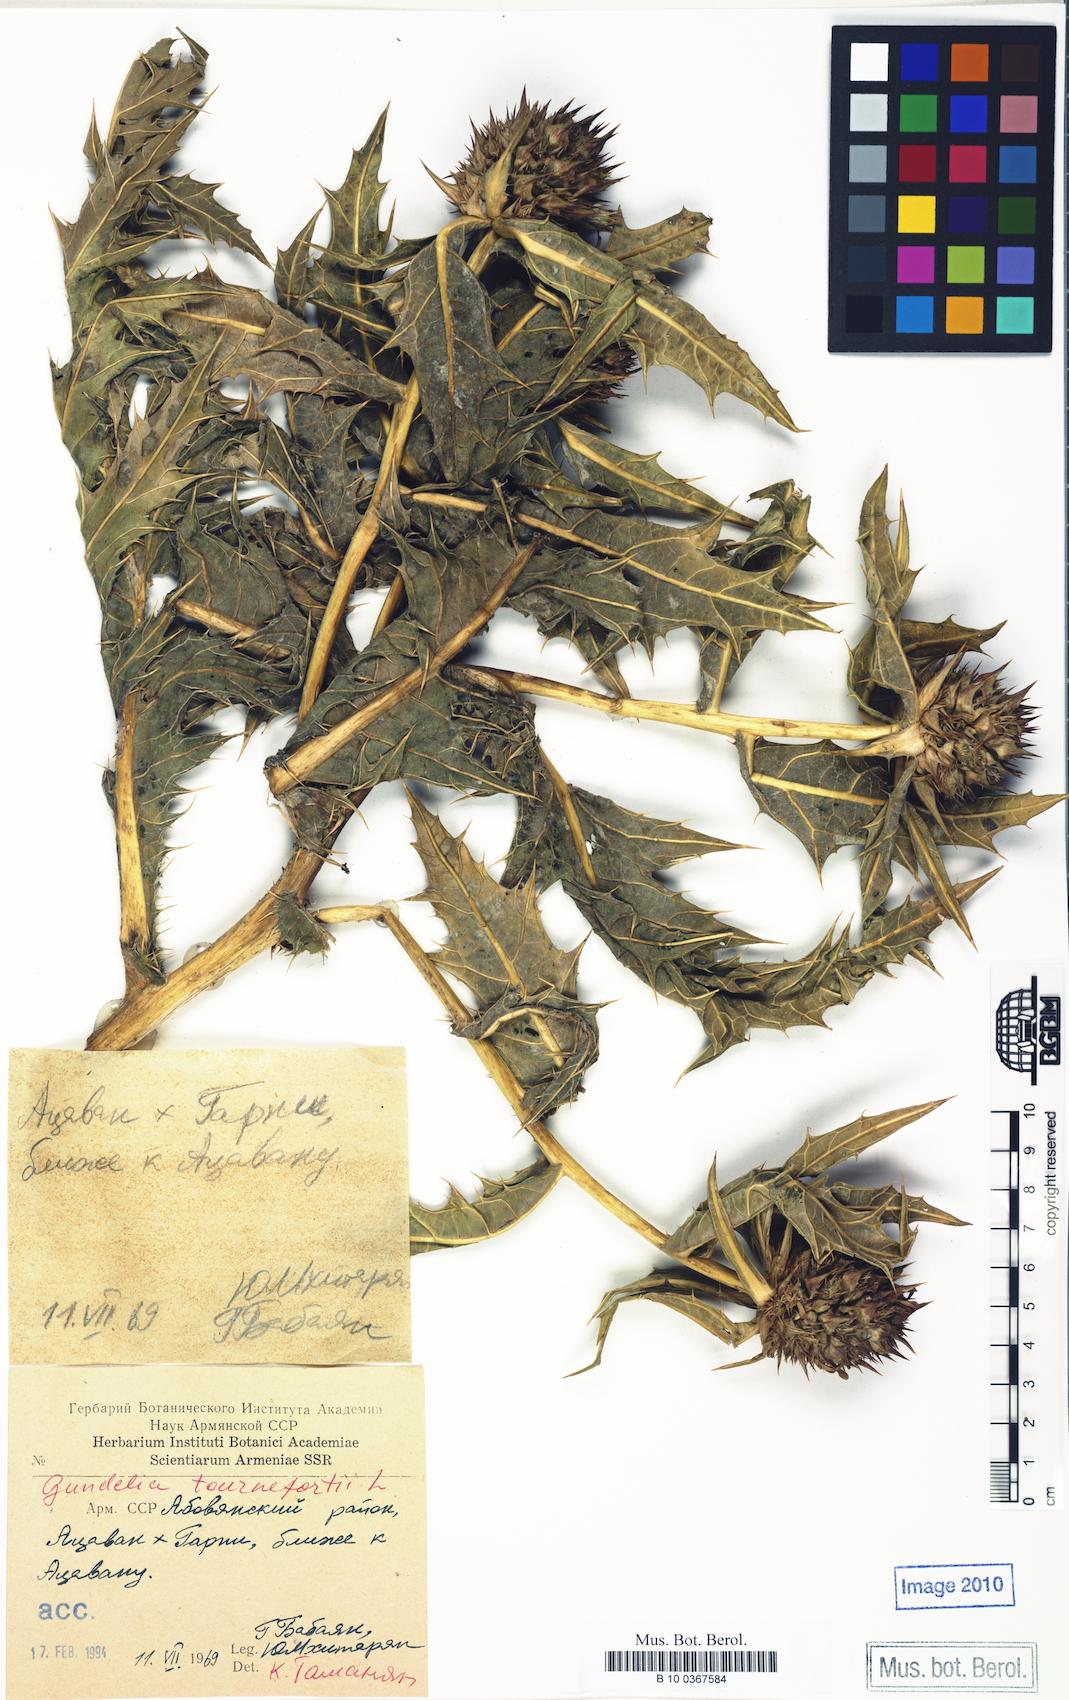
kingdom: Plantae
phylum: Tracheophyta
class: Magnoliopsida
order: Asterales
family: Asteraceae
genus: Gundelia
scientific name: Gundelia tournefortii
